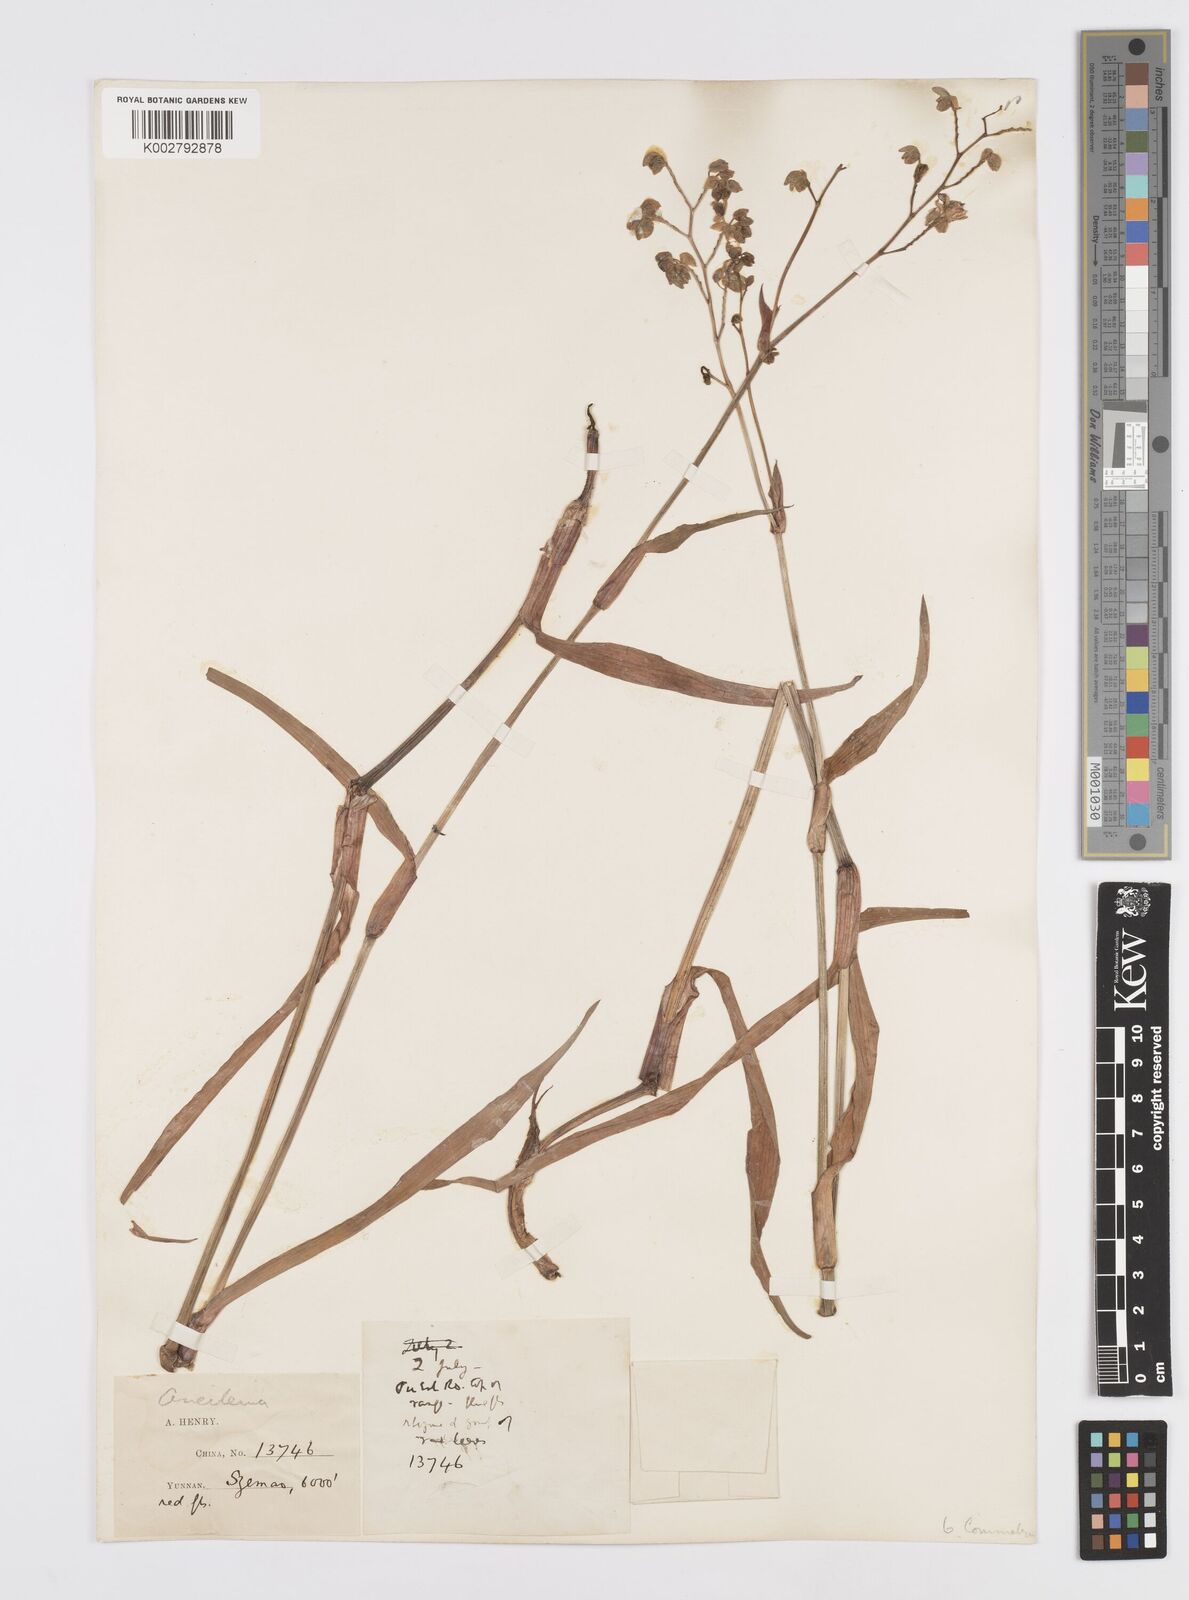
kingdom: Plantae
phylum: Tracheophyta
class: Liliopsida
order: Commelinales
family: Commelinaceae
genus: Murdannia
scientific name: Murdannia
